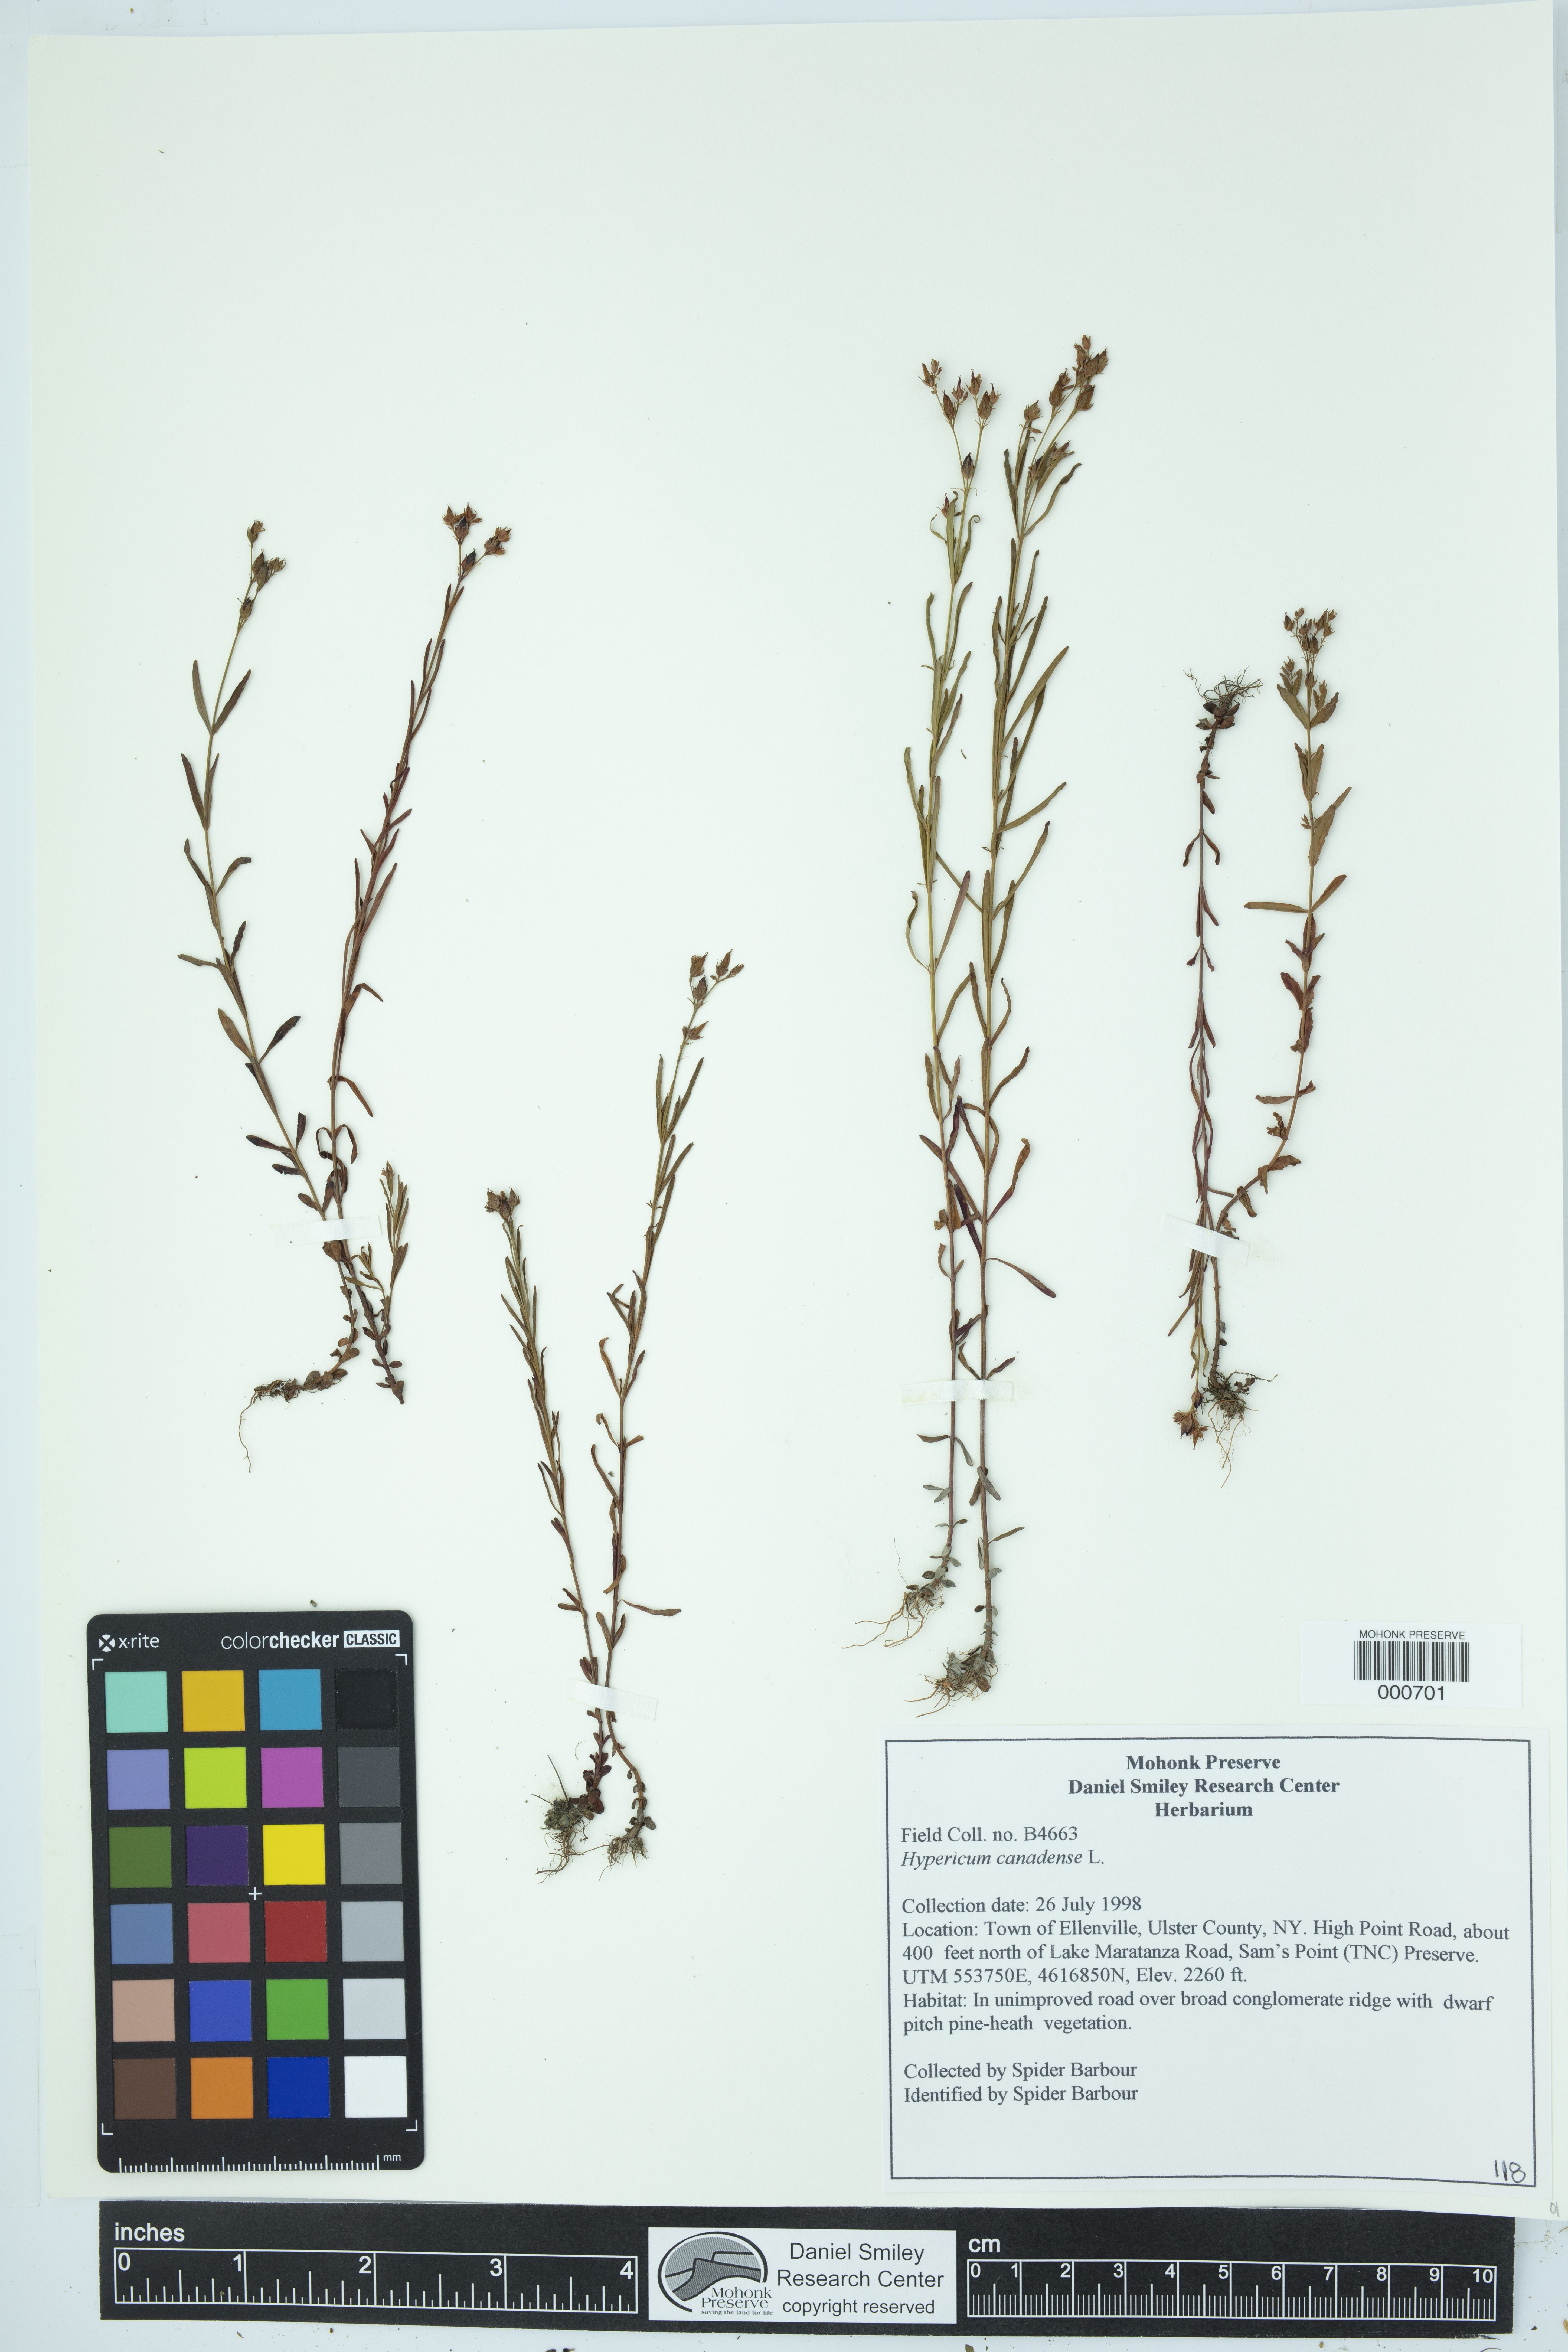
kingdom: Plantae
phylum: Tracheophyta
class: Magnoliopsida
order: Malpighiales
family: Hypericaceae
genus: Hypericum
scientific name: Hypericum canadense
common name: Irish st. john's-wort
